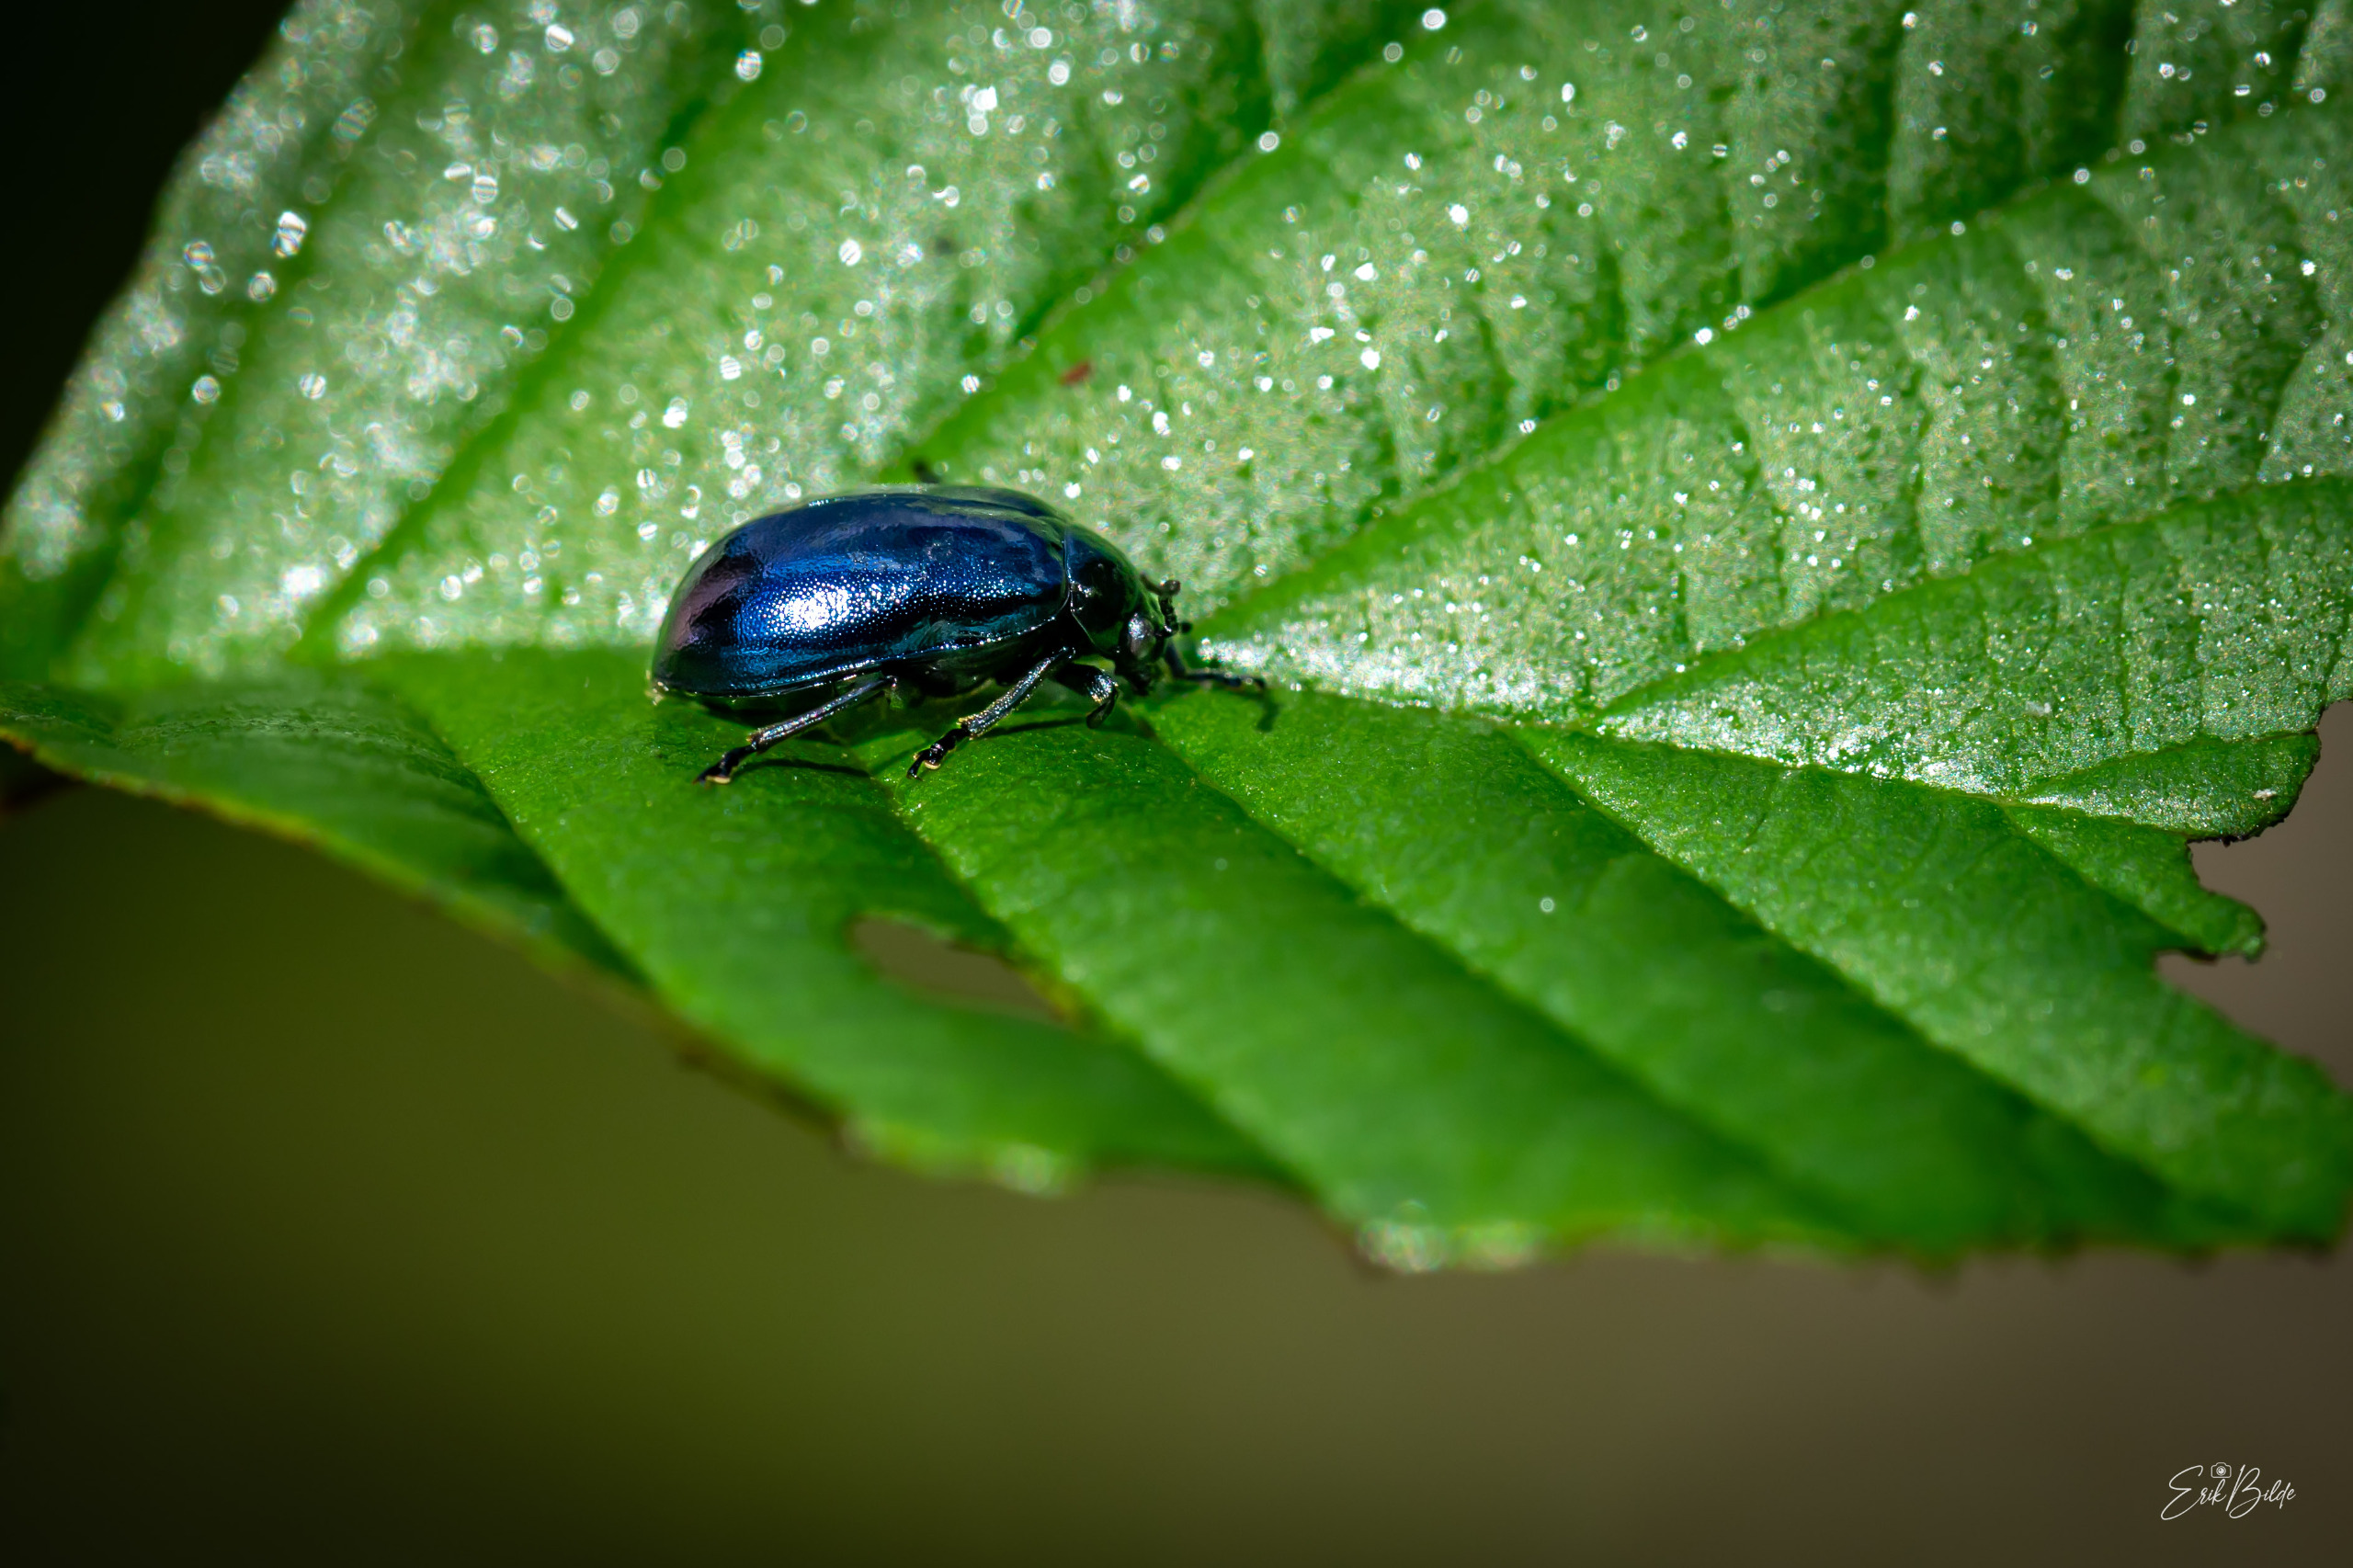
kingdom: Animalia
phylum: Arthropoda
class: Insecta
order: Coleoptera
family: Chrysomelidae
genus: Agelastica
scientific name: Agelastica alni
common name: Ellebladbille
